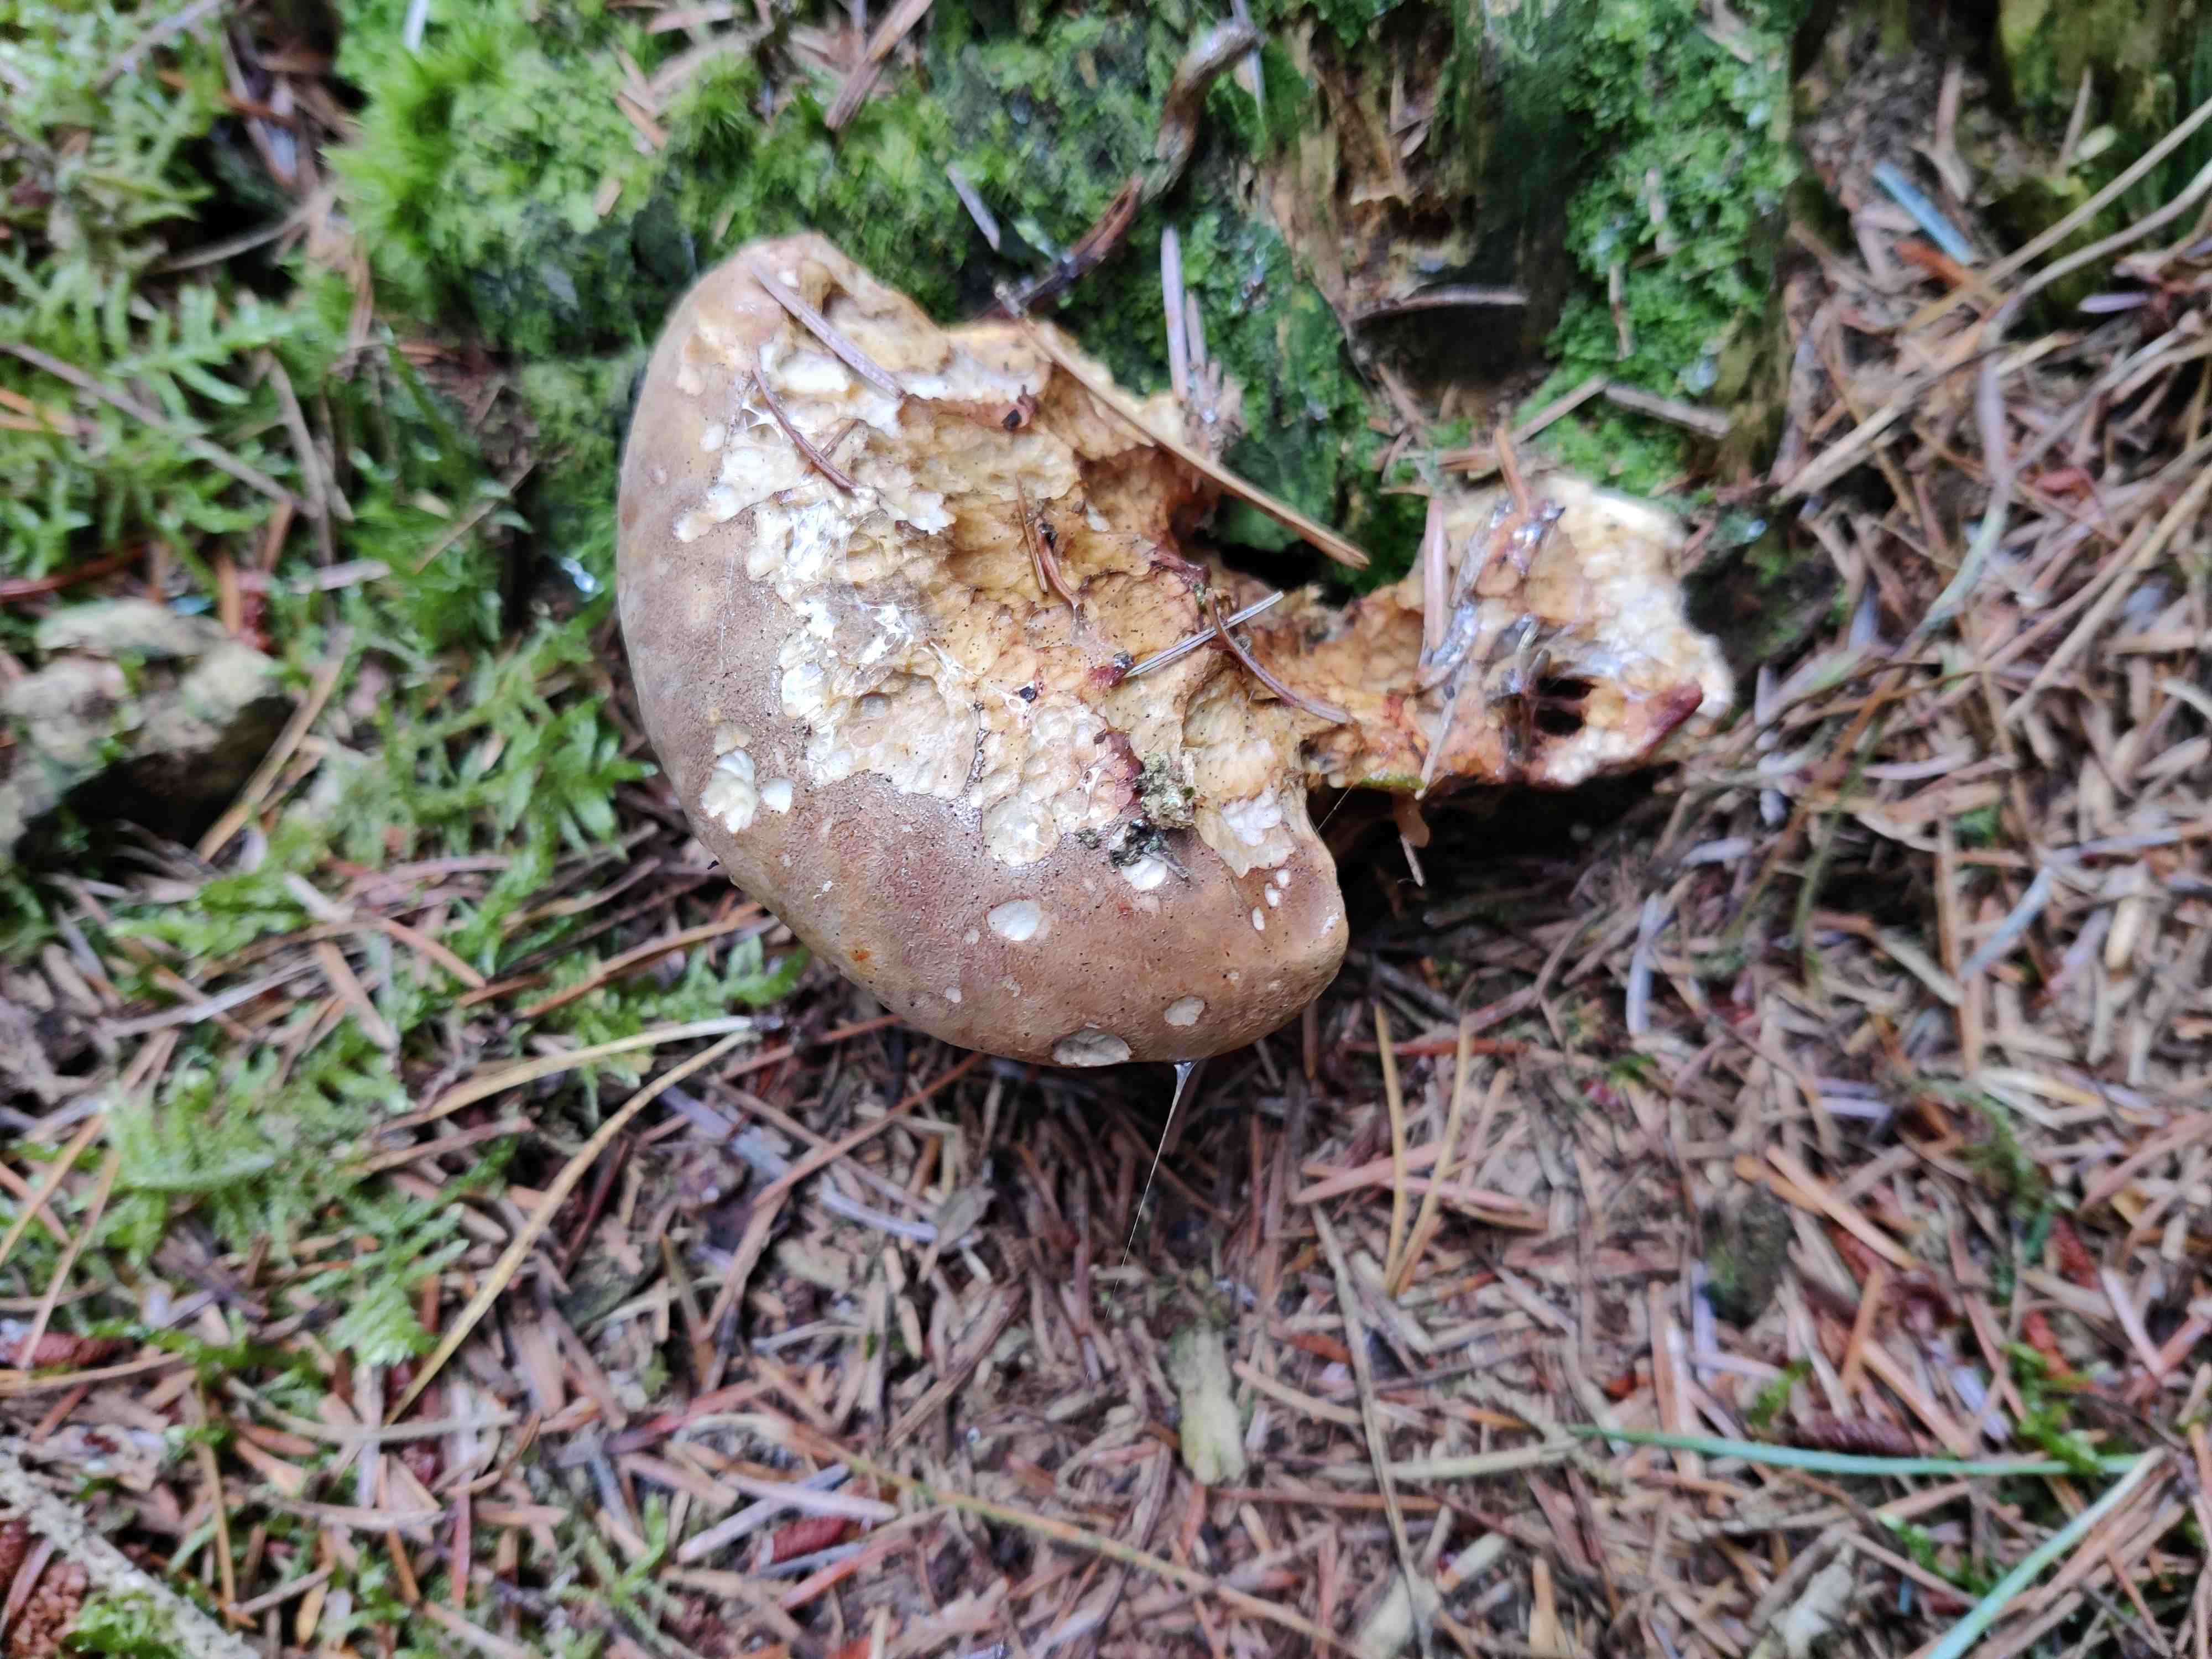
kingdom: Fungi
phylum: Basidiomycota
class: Agaricomycetes
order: Boletales
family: Tapinellaceae
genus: Tapinella
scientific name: Tapinella atrotomentosa
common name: sortfiltet viftesvamp
